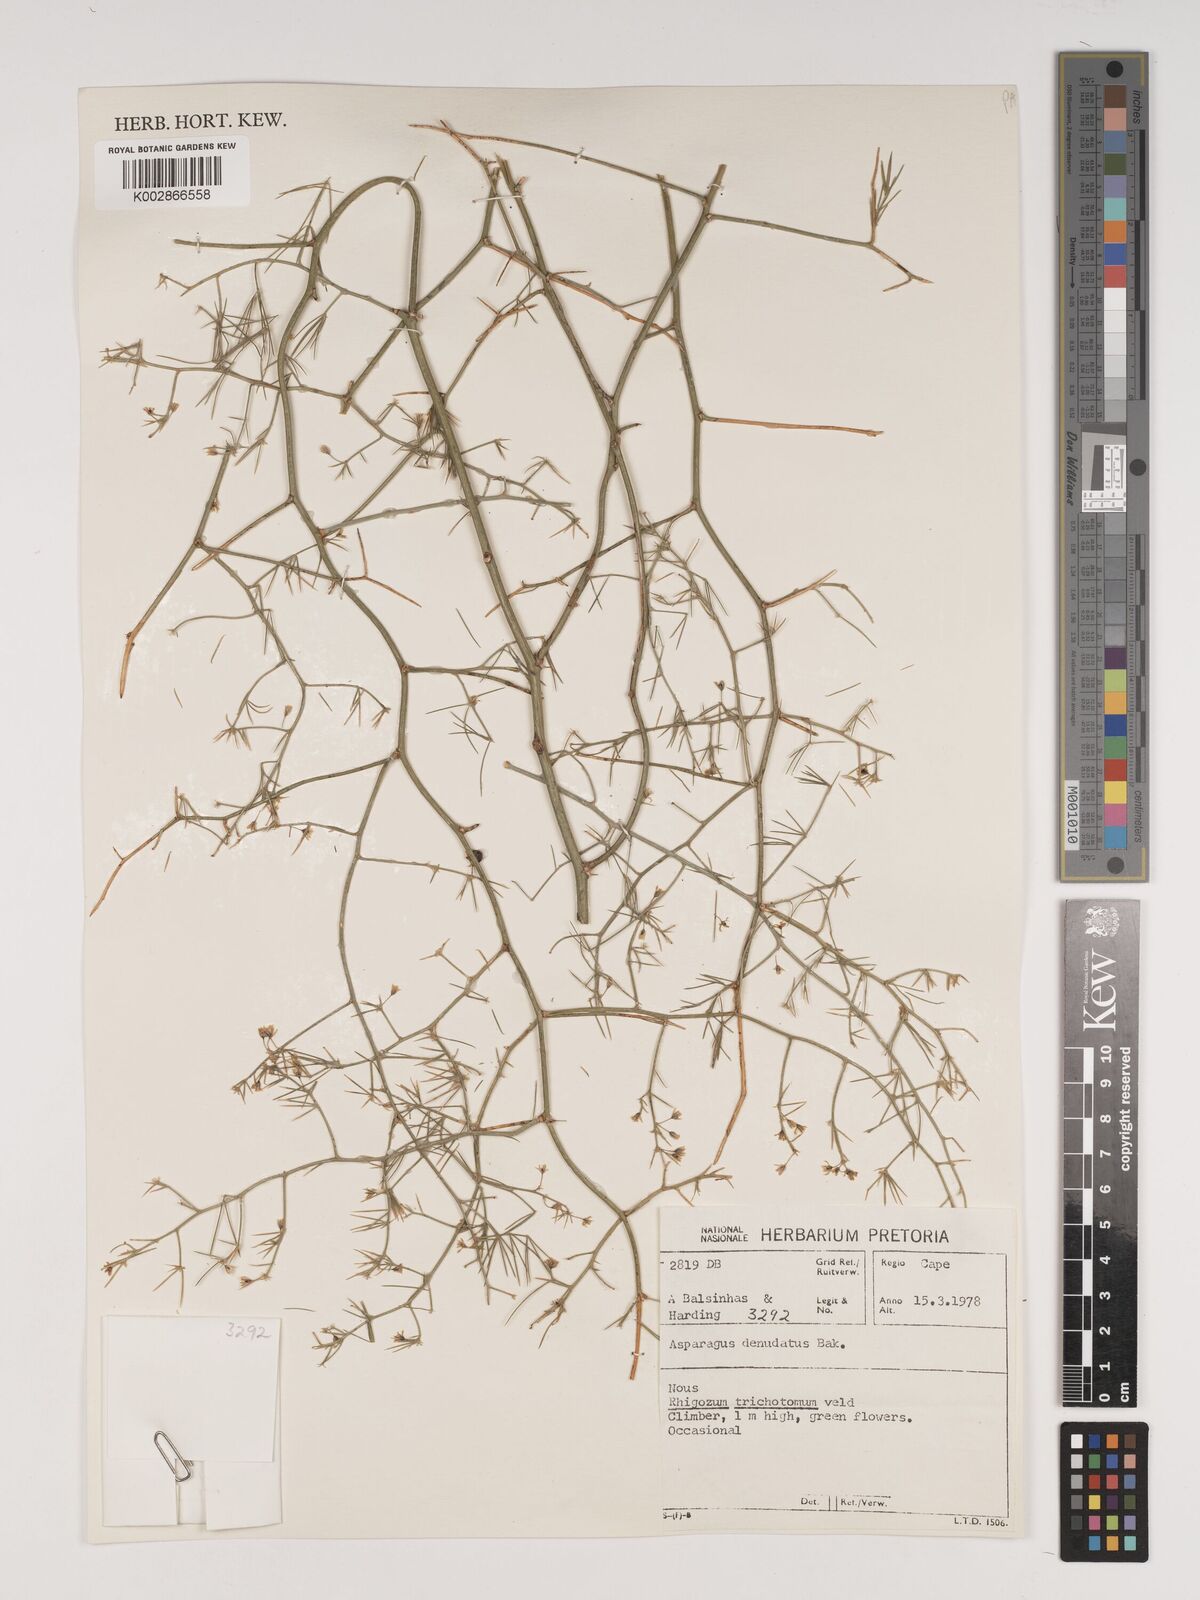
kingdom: Plantae
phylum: Tracheophyta
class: Liliopsida
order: Asparagales
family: Asparagaceae
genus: Asparagus
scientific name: Asparagus denudatus
